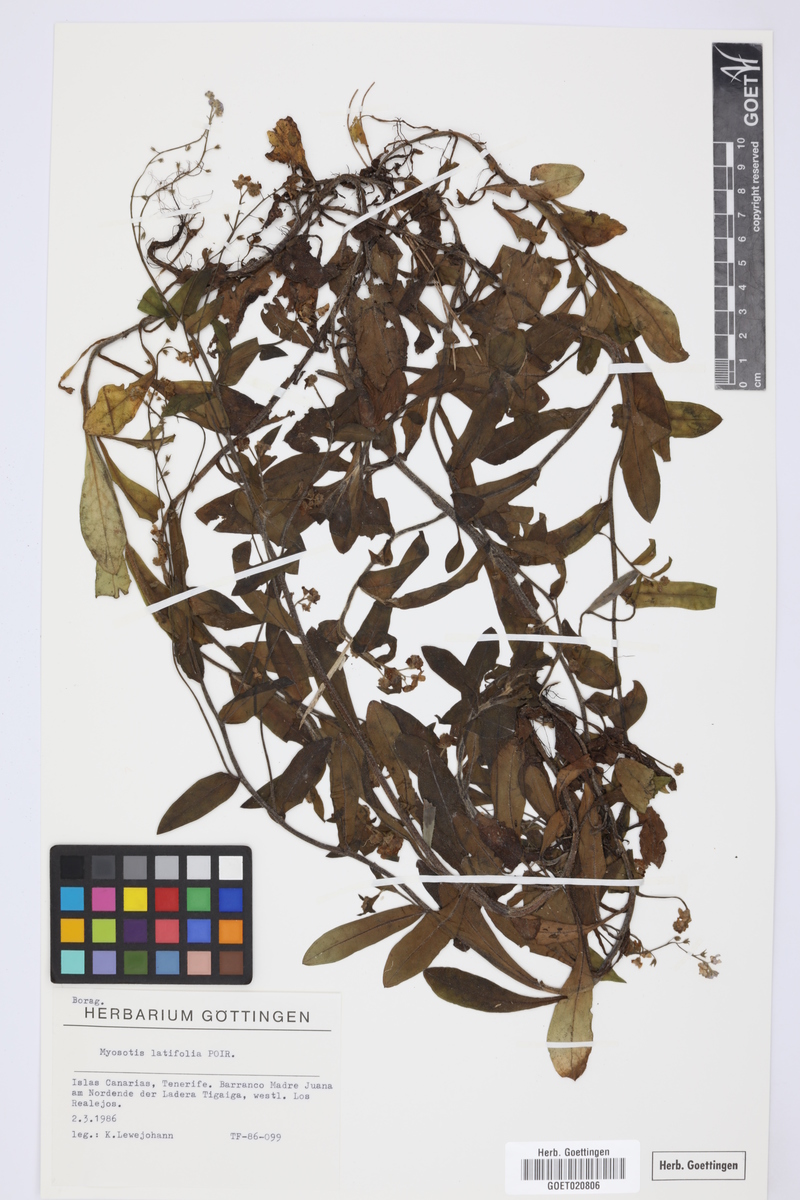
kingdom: Plantae
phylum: Tracheophyta
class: Magnoliopsida
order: Boraginales
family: Boraginaceae
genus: Myosotis
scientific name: Myosotis latifolia
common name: Broadleaf forget-me-not
